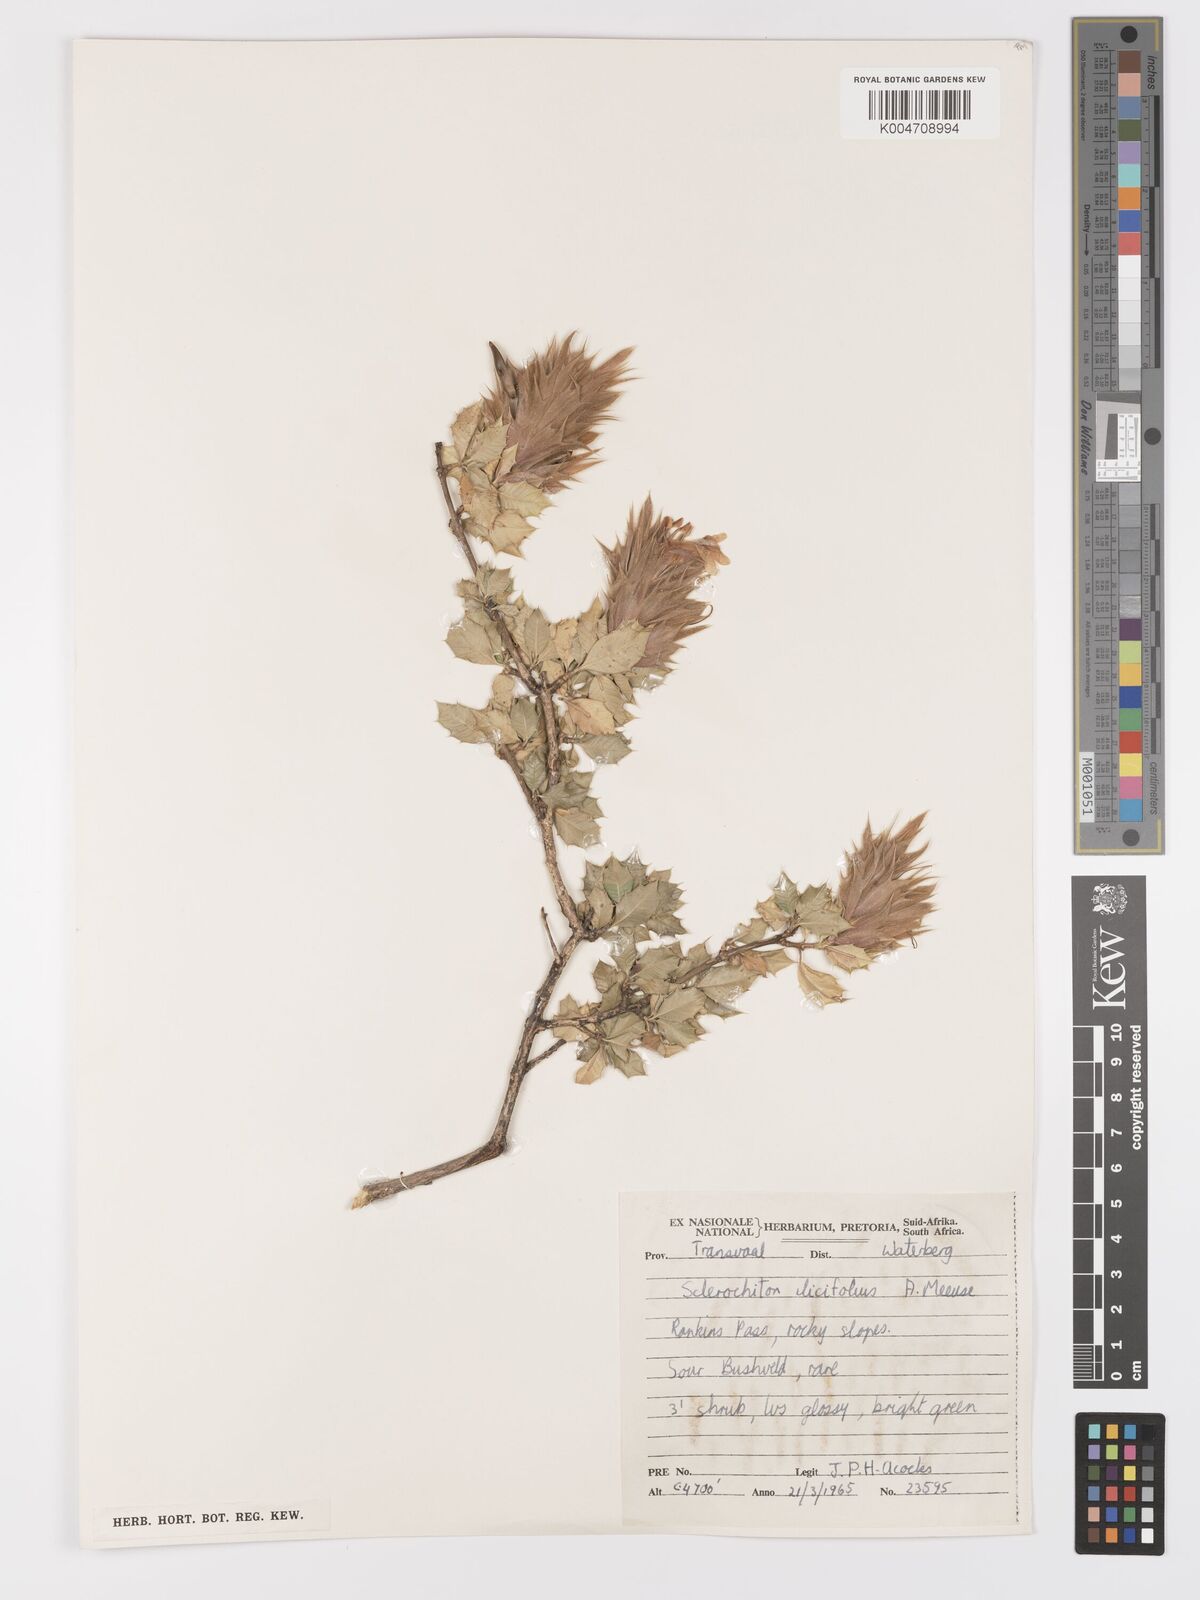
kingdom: Plantae
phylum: Tracheophyta
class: Magnoliopsida
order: Lamiales
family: Acanthaceae
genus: Sclerochiton
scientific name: Sclerochiton ilicifolius
